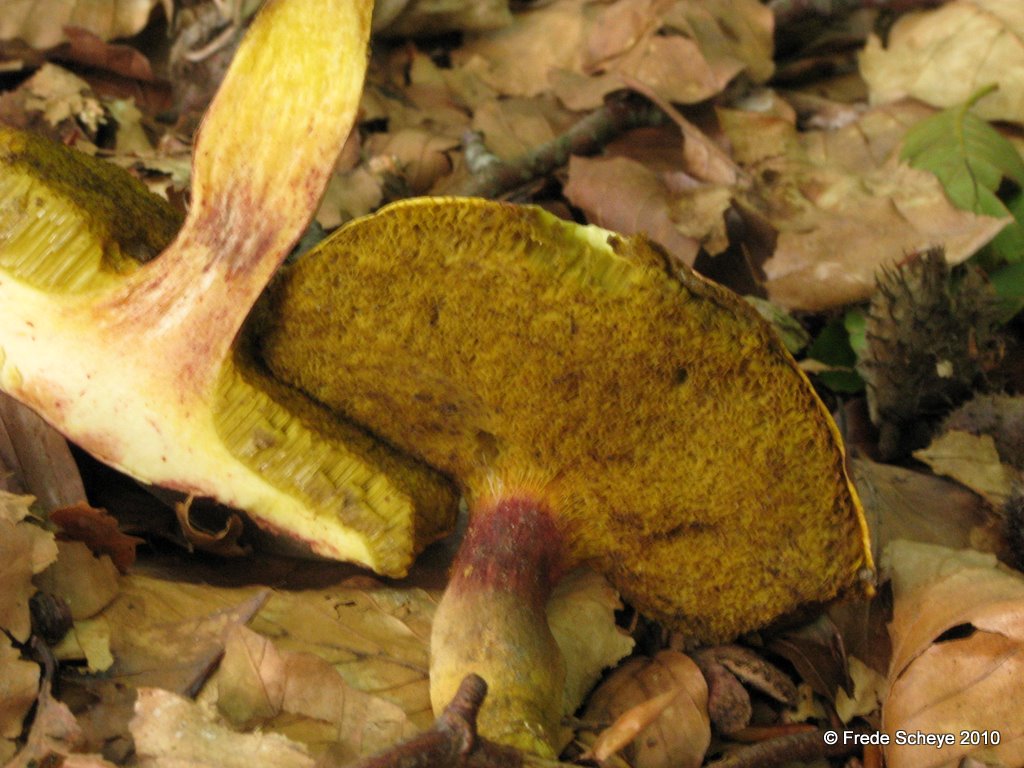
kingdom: Fungi
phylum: Basidiomycota
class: Agaricomycetes
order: Boletales
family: Boletaceae
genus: Xerocomellus
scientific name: Xerocomellus chrysenteron
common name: rødsprukken rørhat
